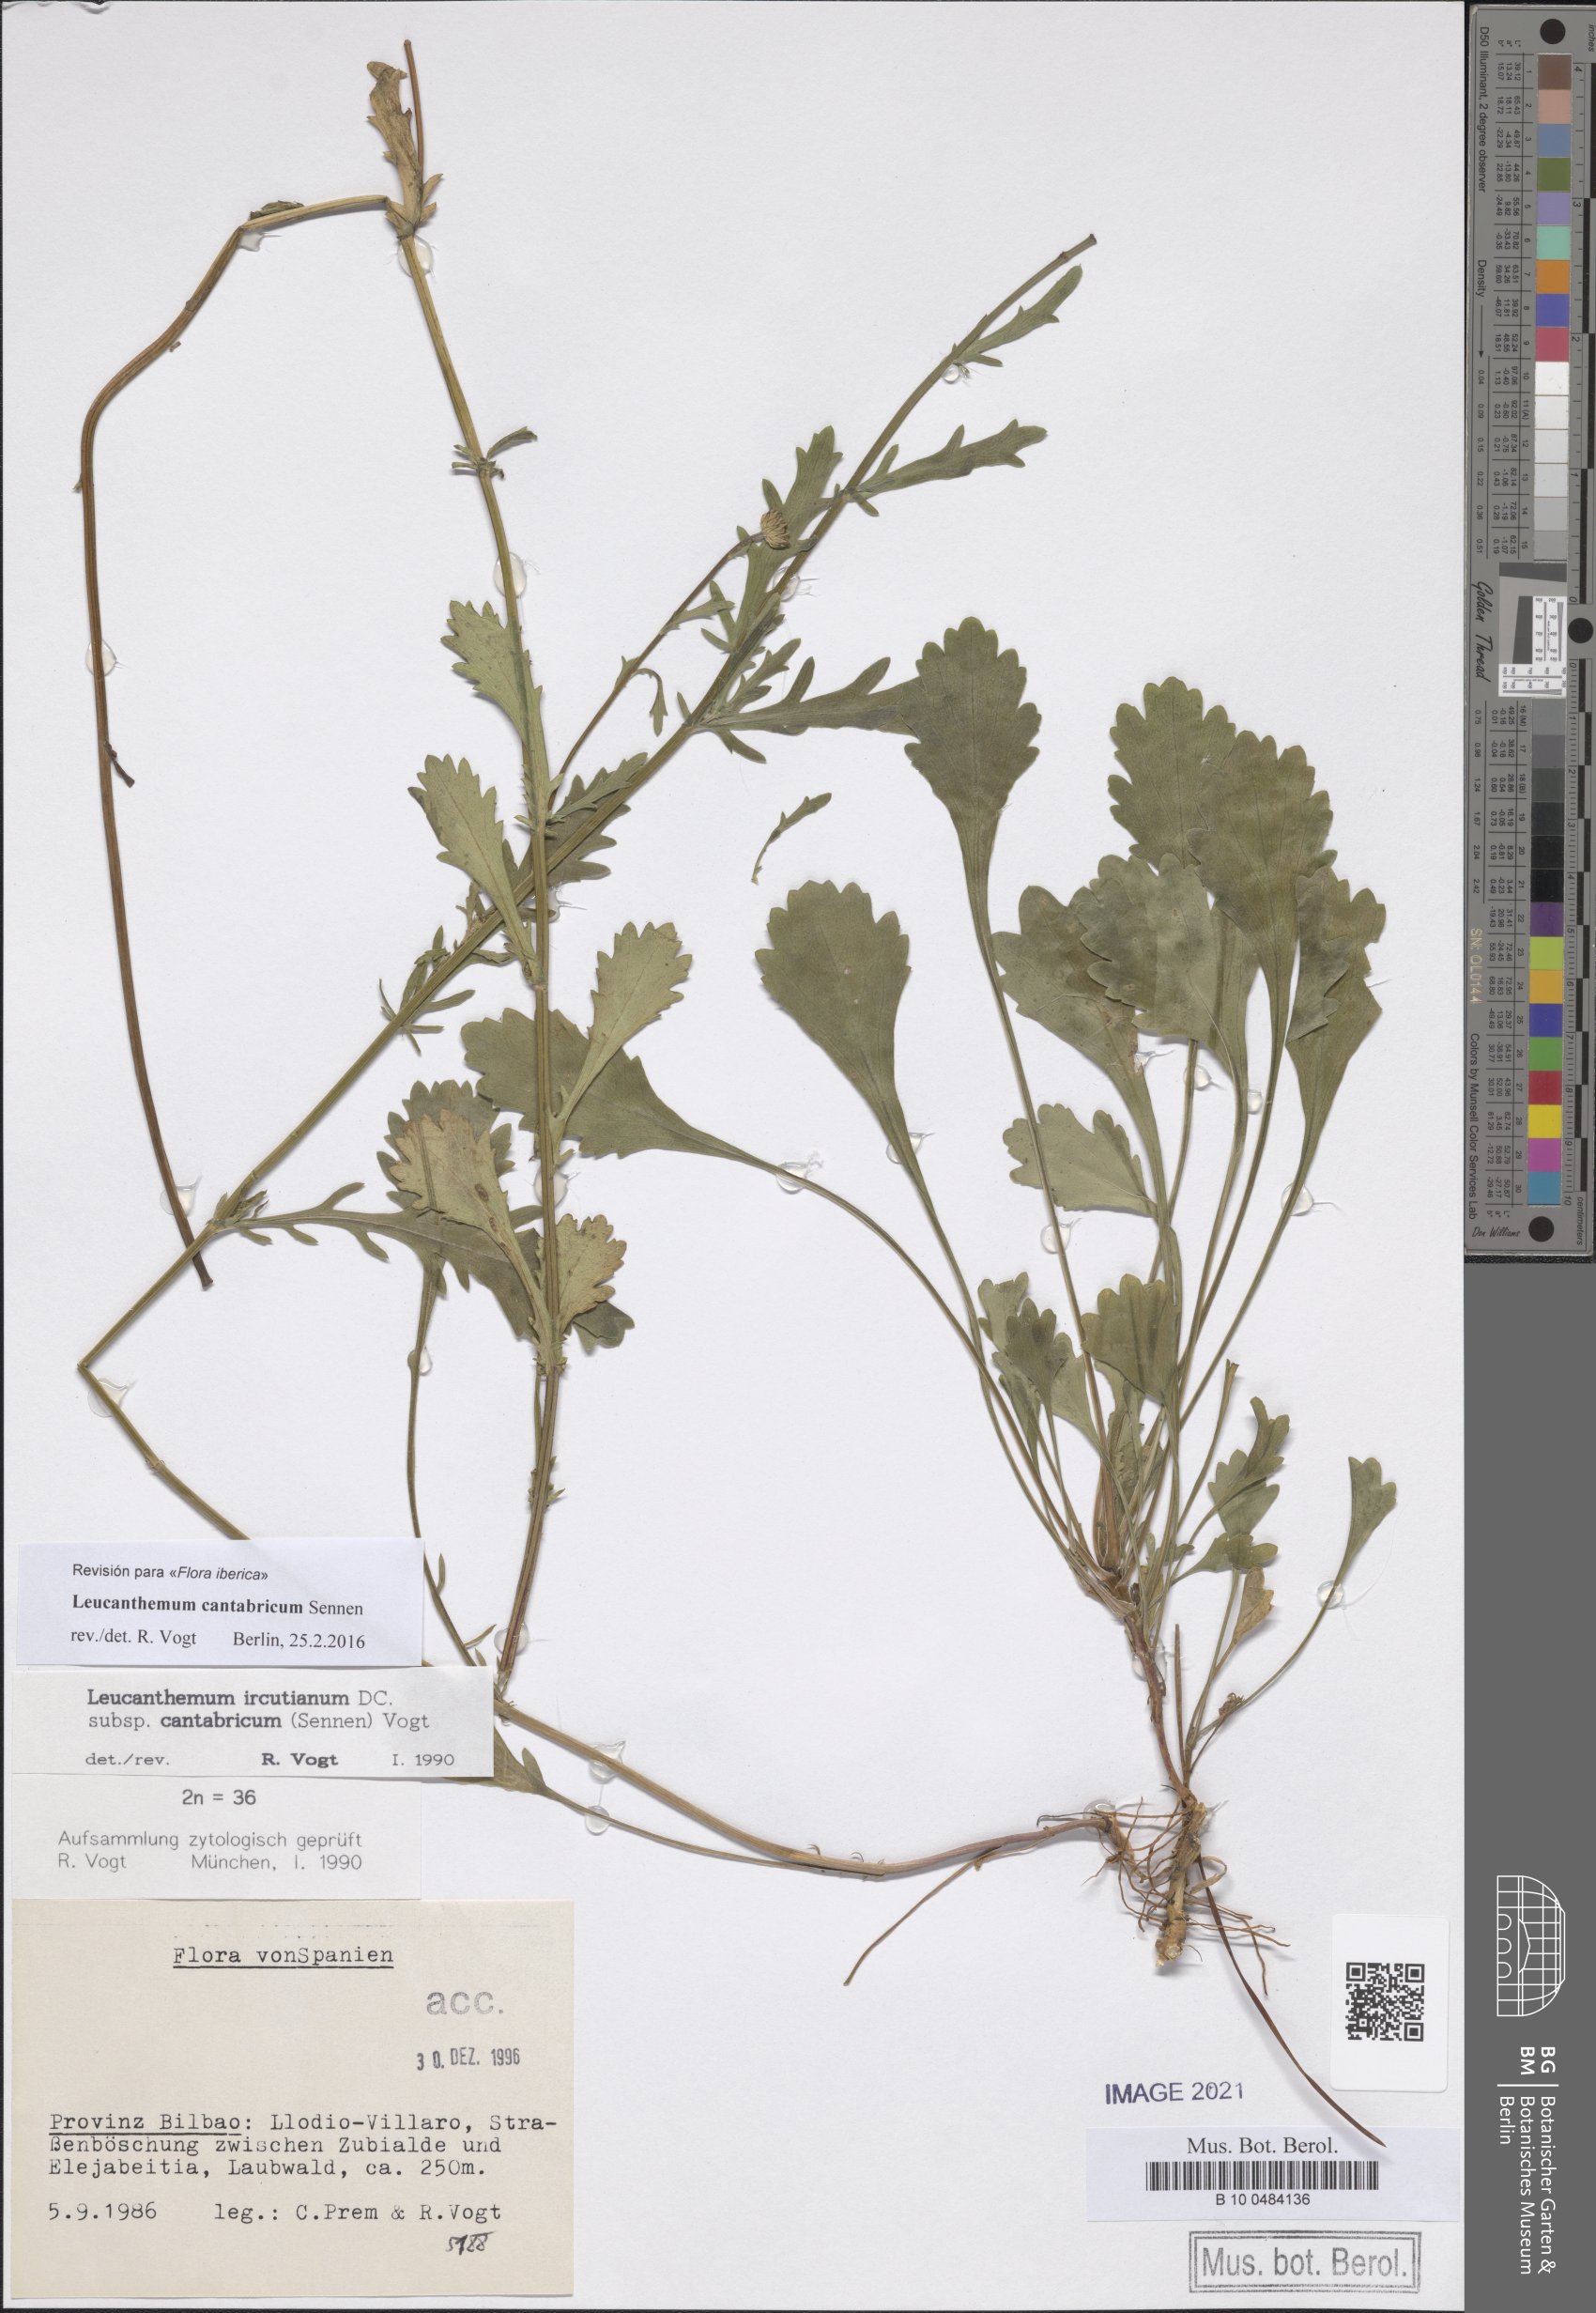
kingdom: Plantae
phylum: Tracheophyta
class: Magnoliopsida
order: Asterales
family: Asteraceae
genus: Leucanthemum
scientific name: Leucanthemum cantabricum
